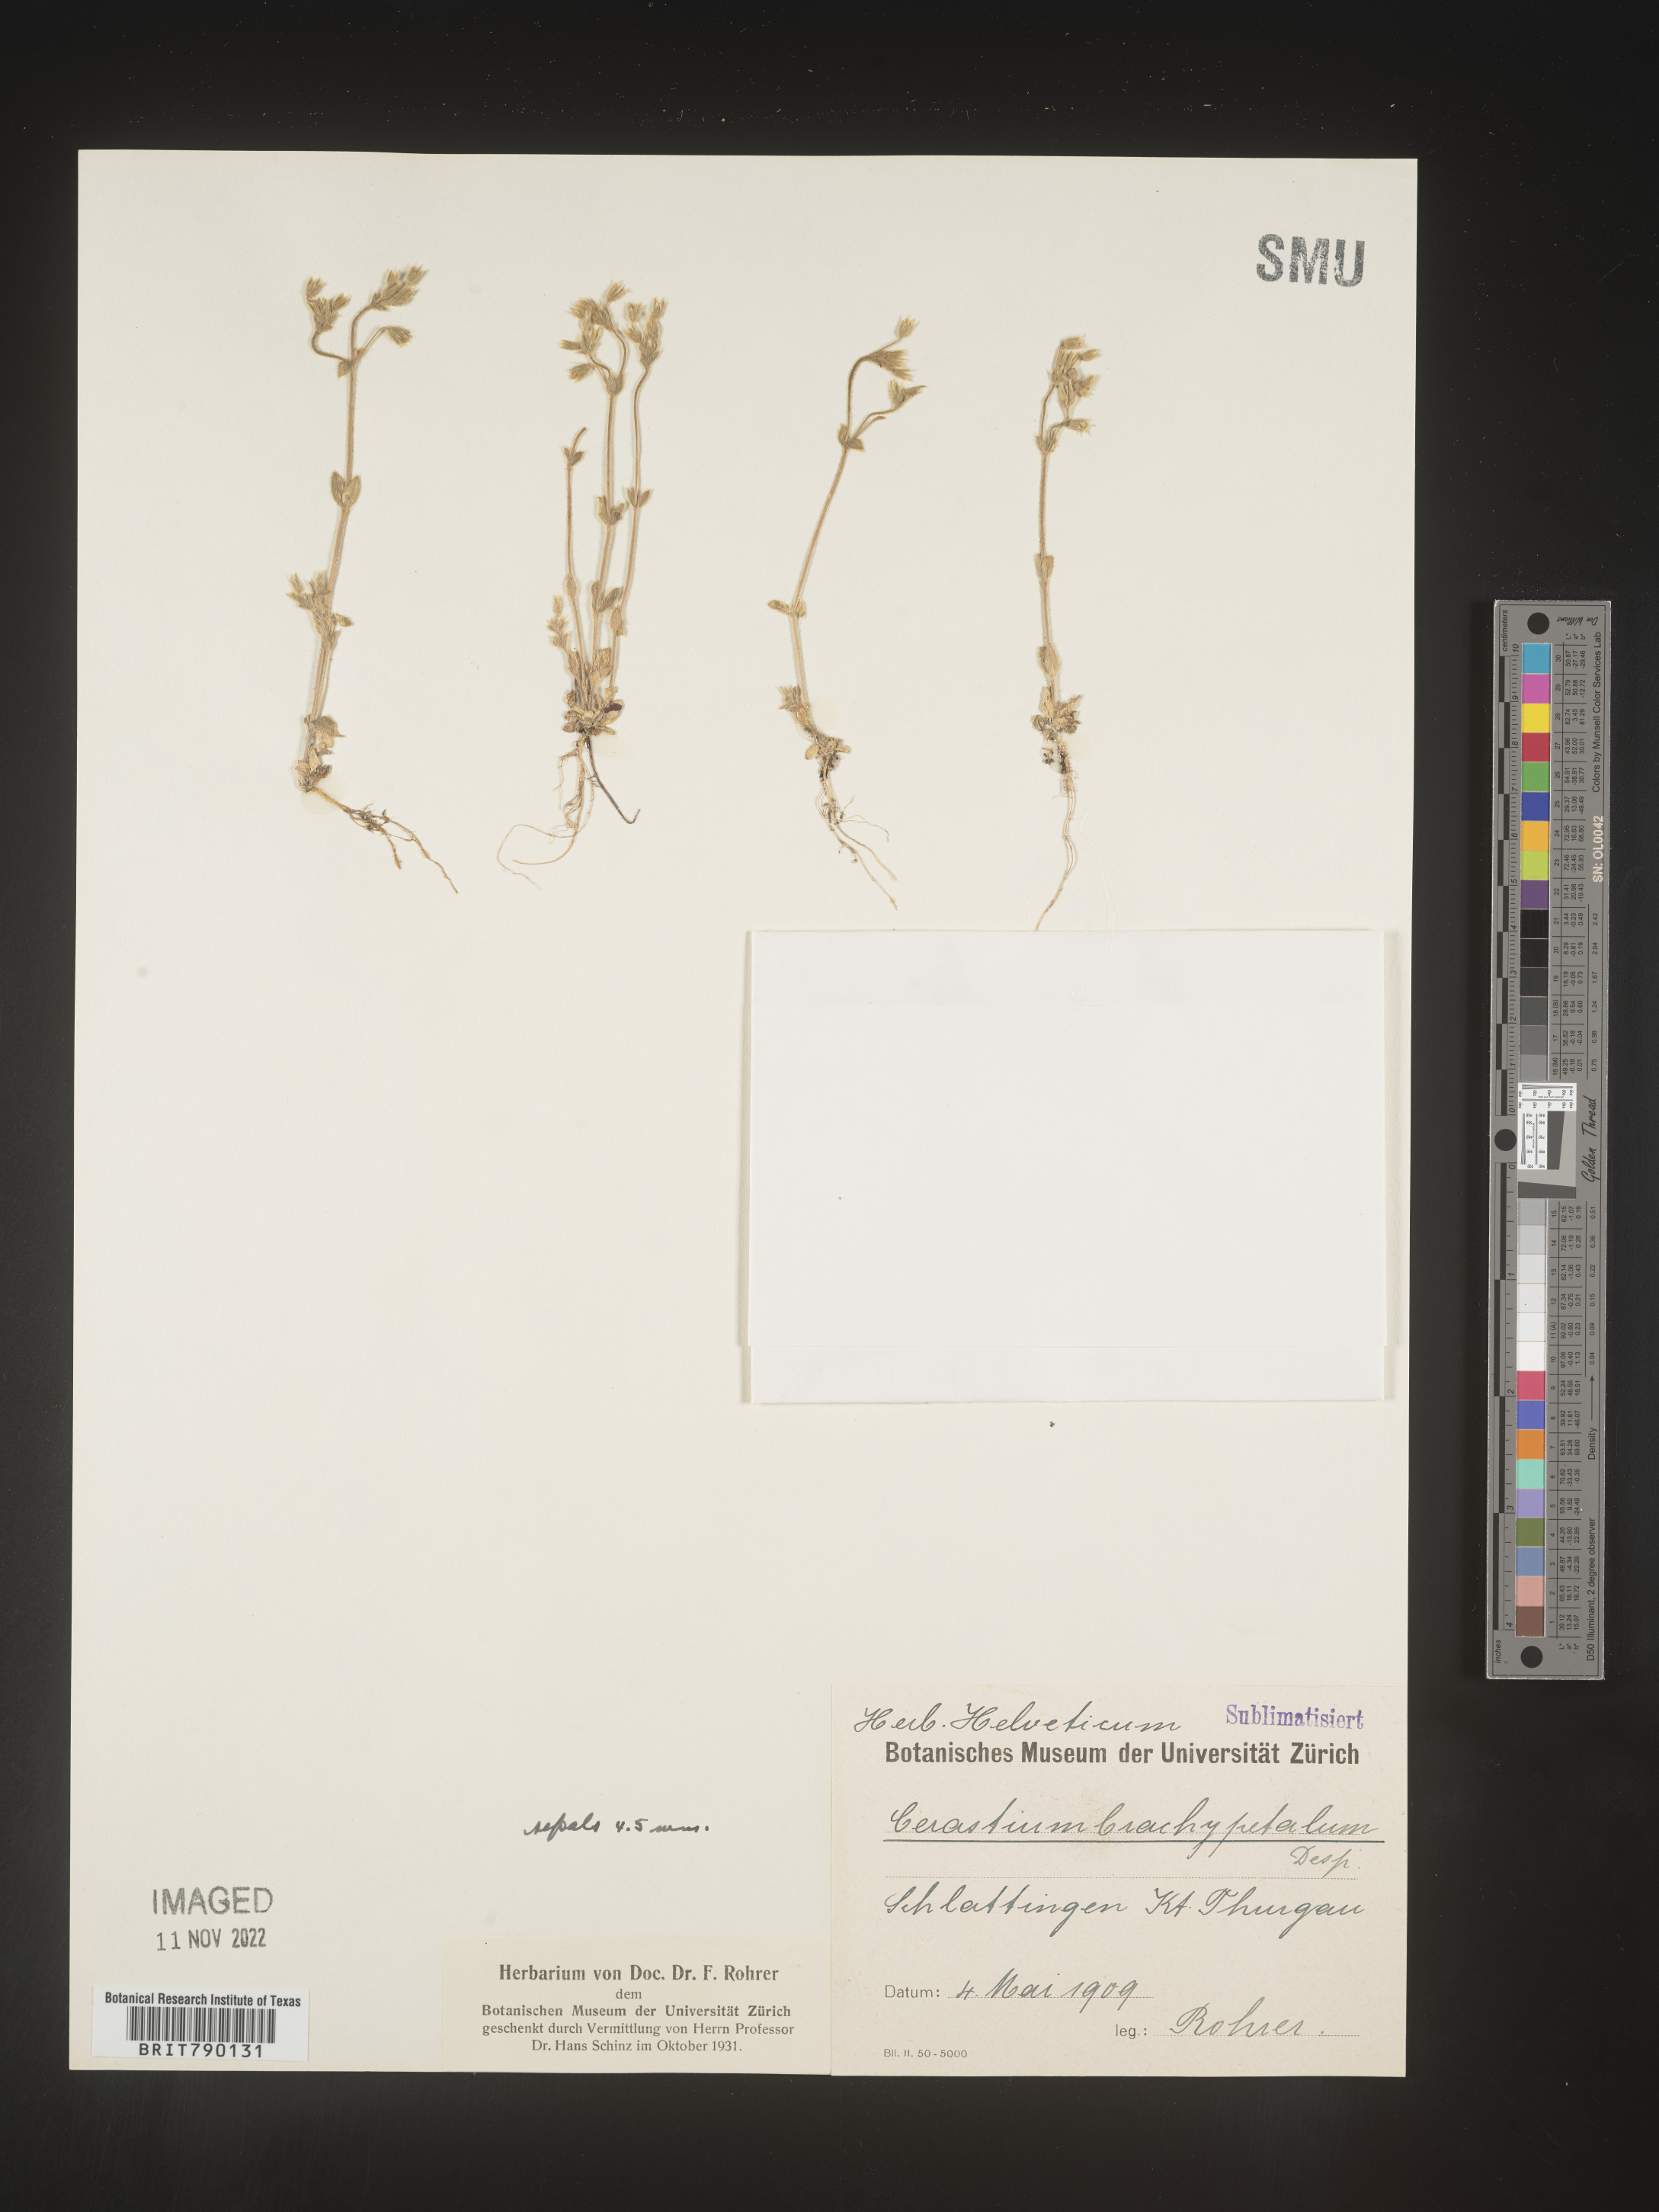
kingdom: Plantae
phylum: Tracheophyta
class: Magnoliopsida
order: Caryophyllales
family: Caryophyllaceae
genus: Cerastium
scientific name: Cerastium
